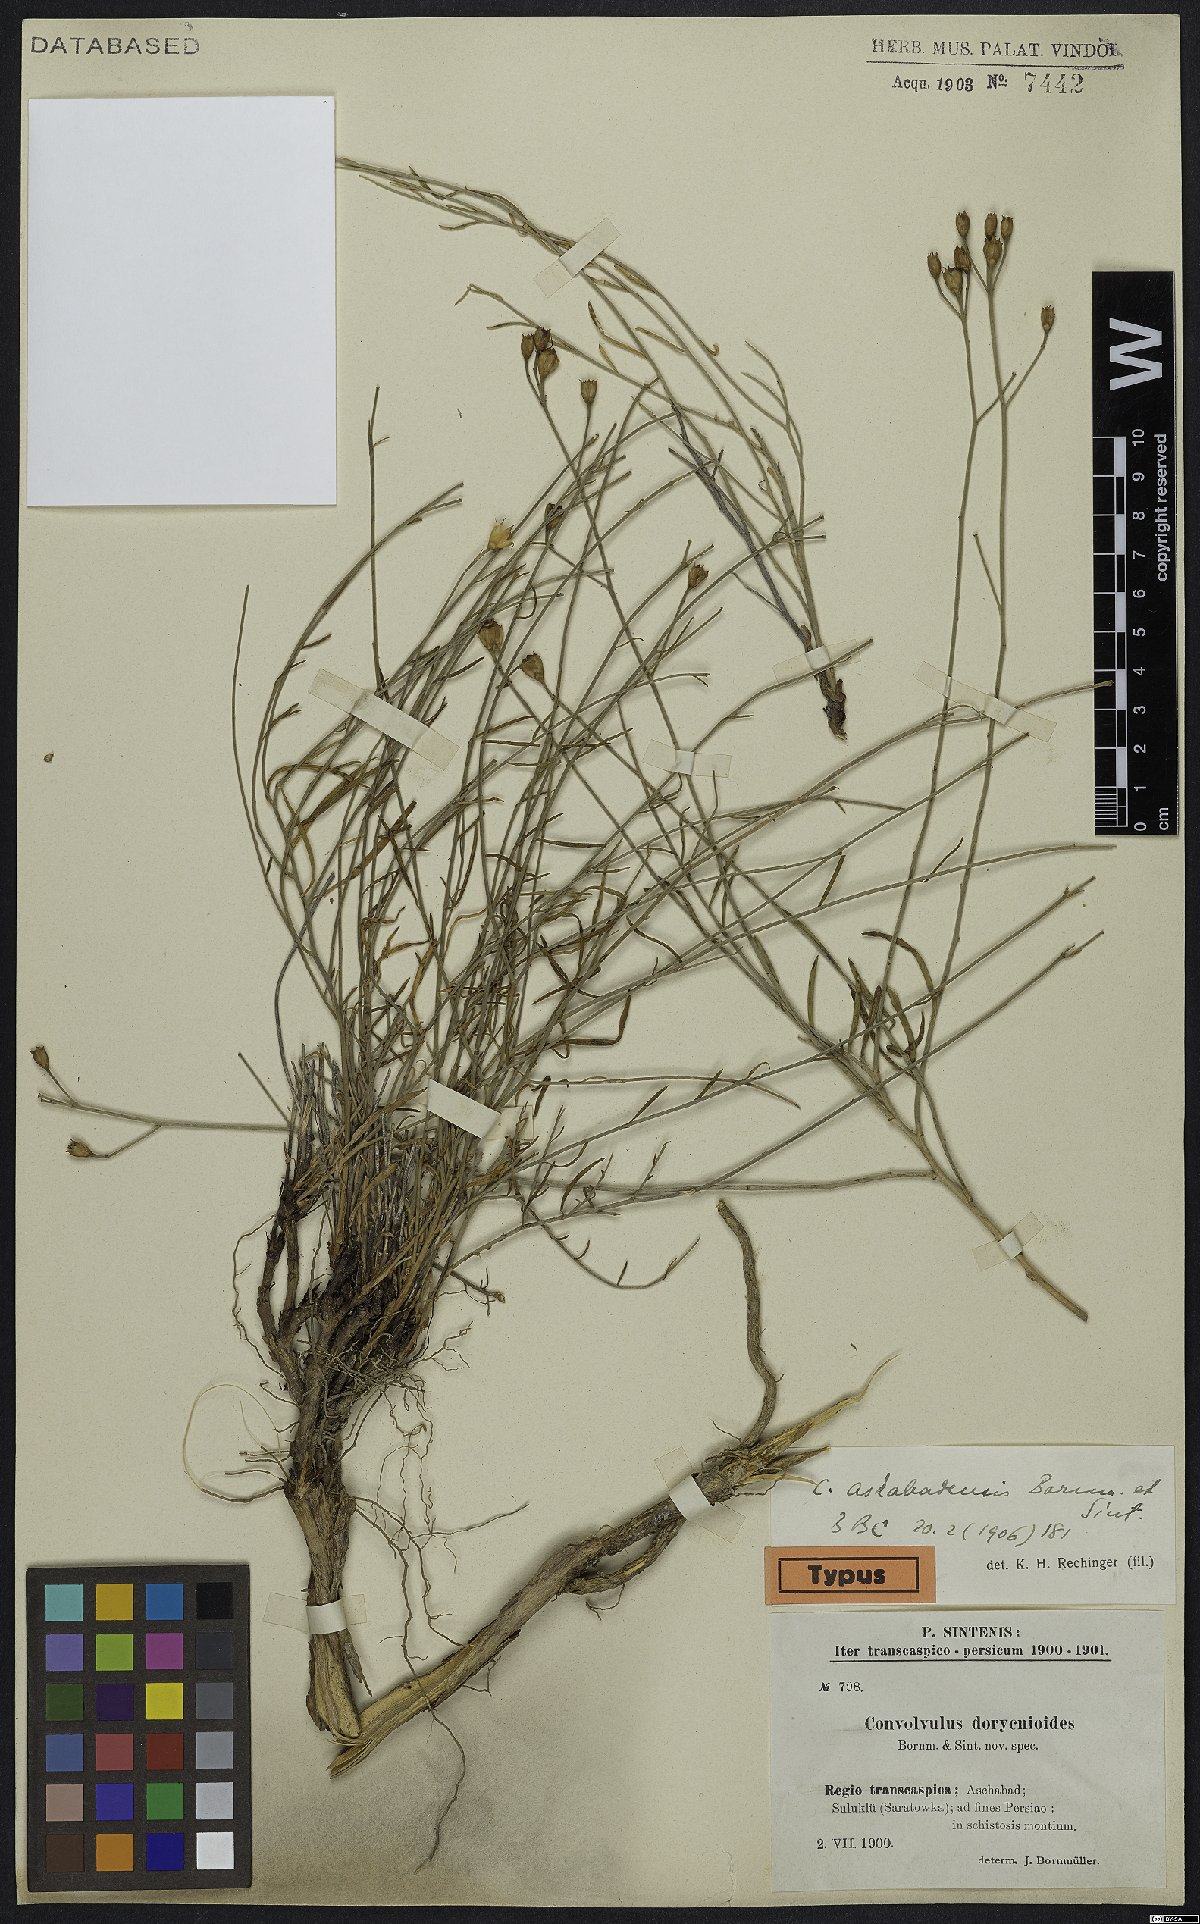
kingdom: Plantae
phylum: Tracheophyta
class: Magnoliopsida
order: Solanales
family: Convolvulaceae
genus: Convolvulus
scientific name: Convolvulus pseudocantabrica
